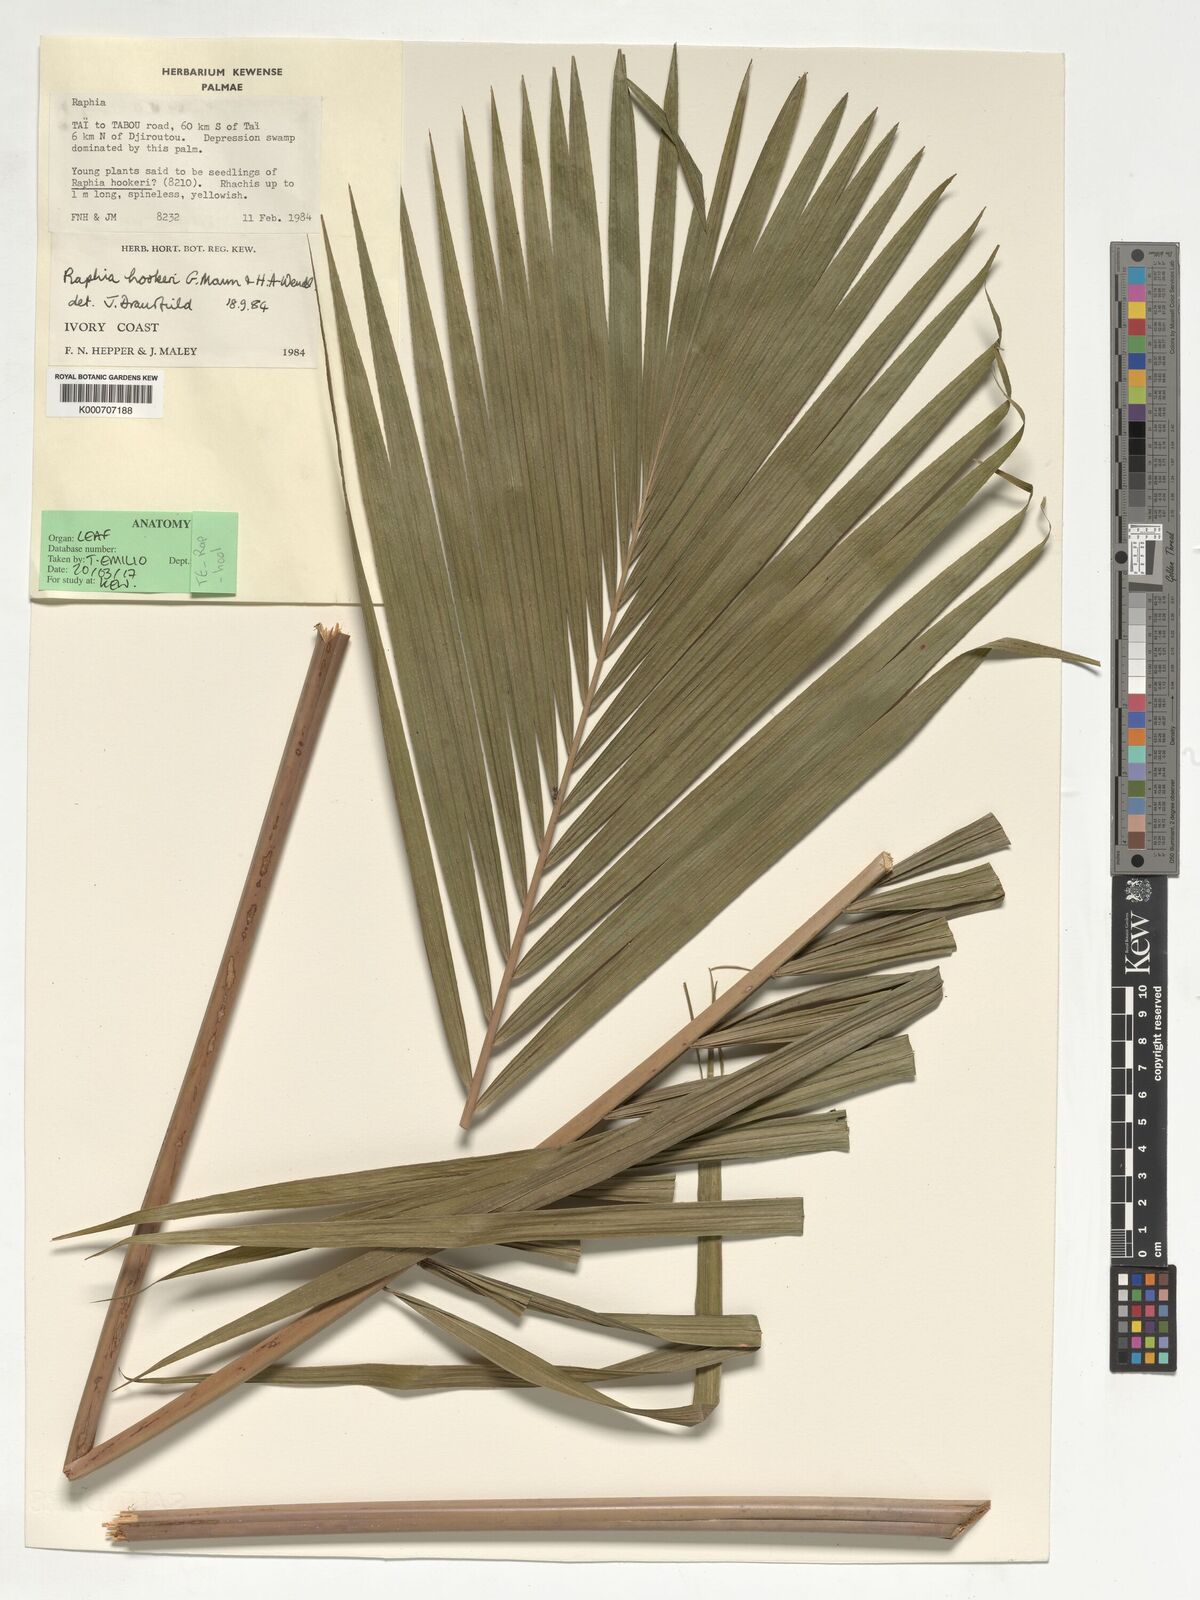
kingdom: Plantae
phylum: Tracheophyta
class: Liliopsida
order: Arecales
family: Arecaceae
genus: Raphia
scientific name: Raphia hookeri
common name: Wine palm
